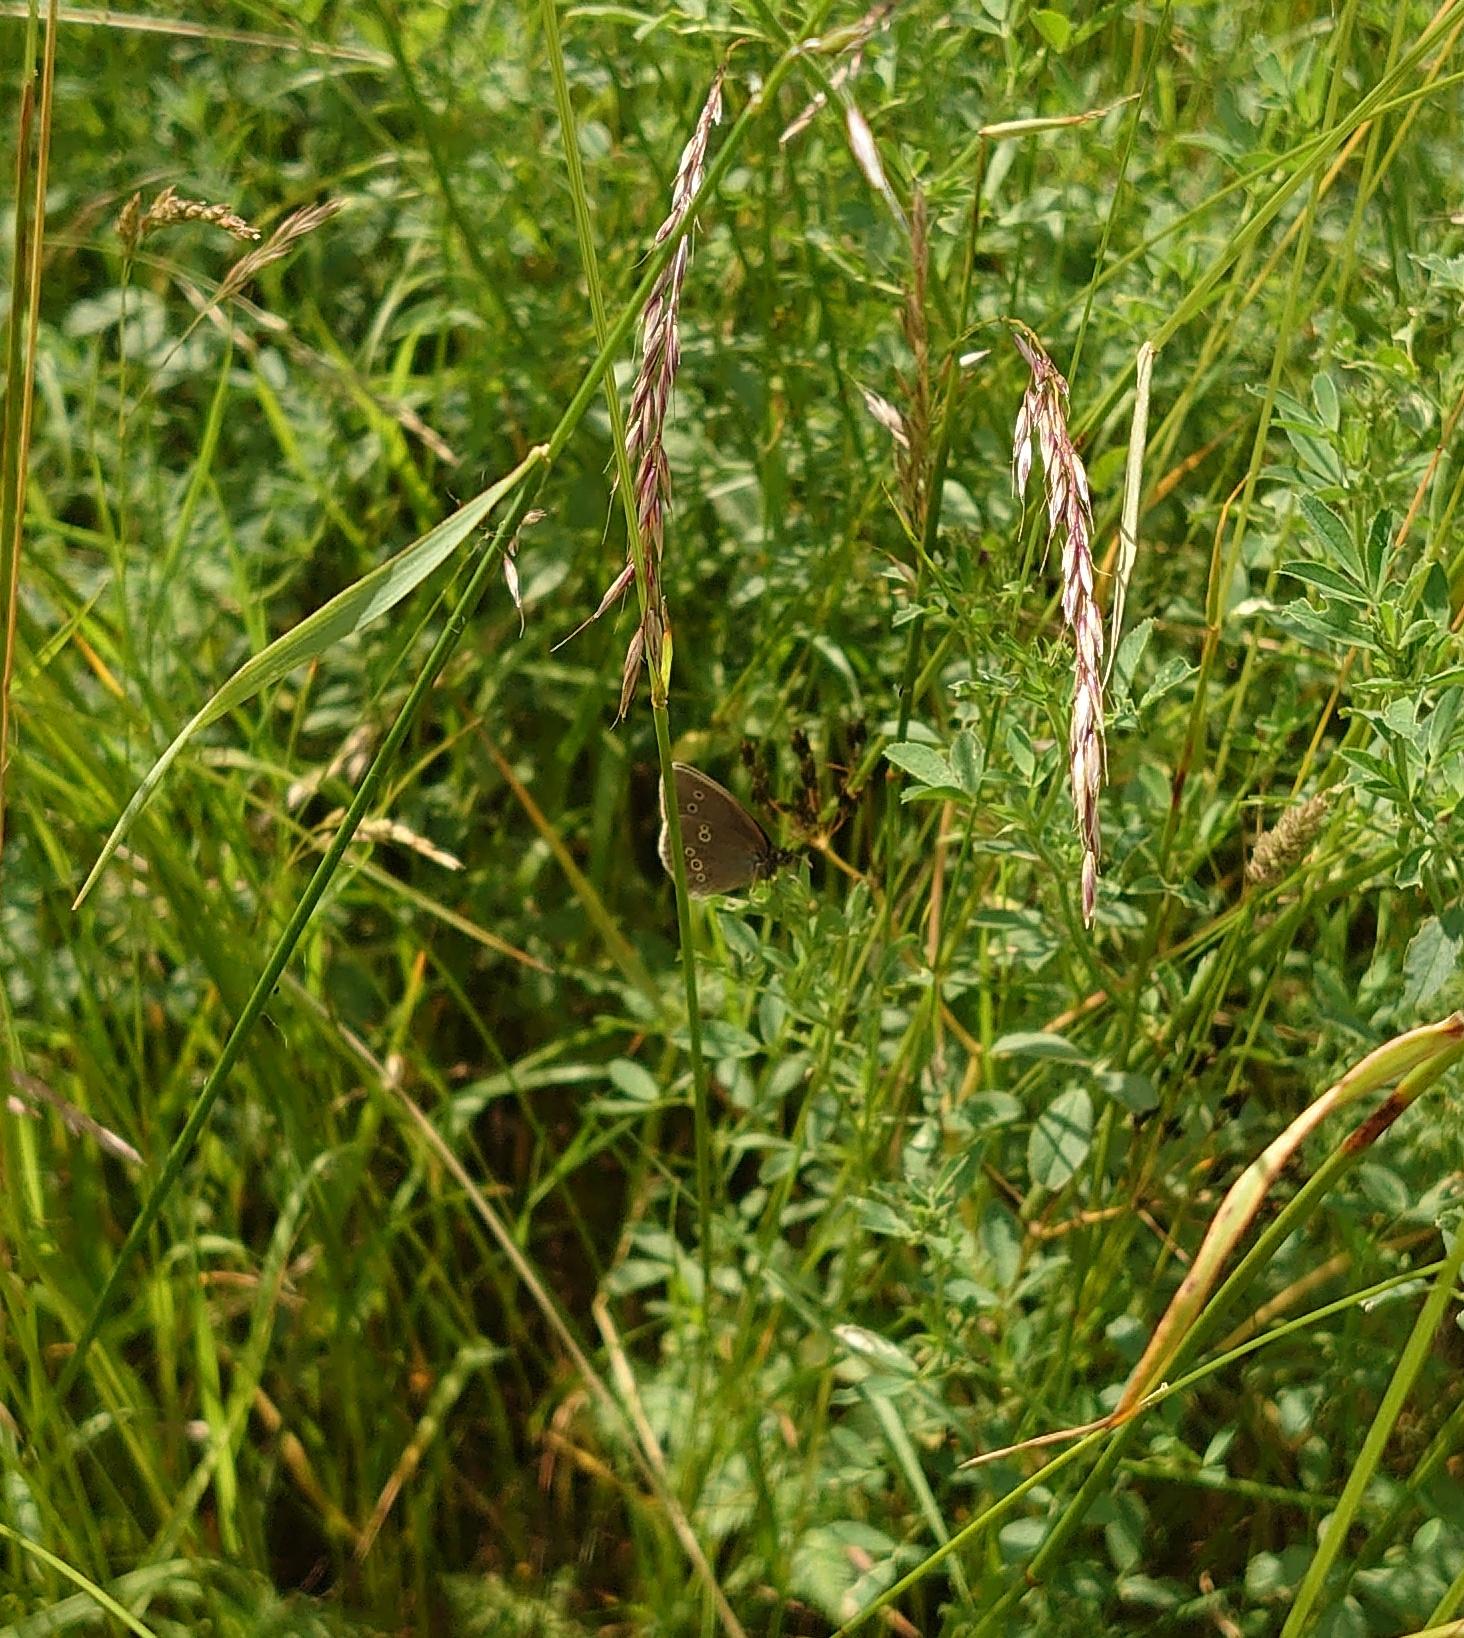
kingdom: Animalia
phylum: Arthropoda
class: Insecta
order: Lepidoptera
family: Nymphalidae
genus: Aphantopus
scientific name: Aphantopus hyperantus
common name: Engrandøje
